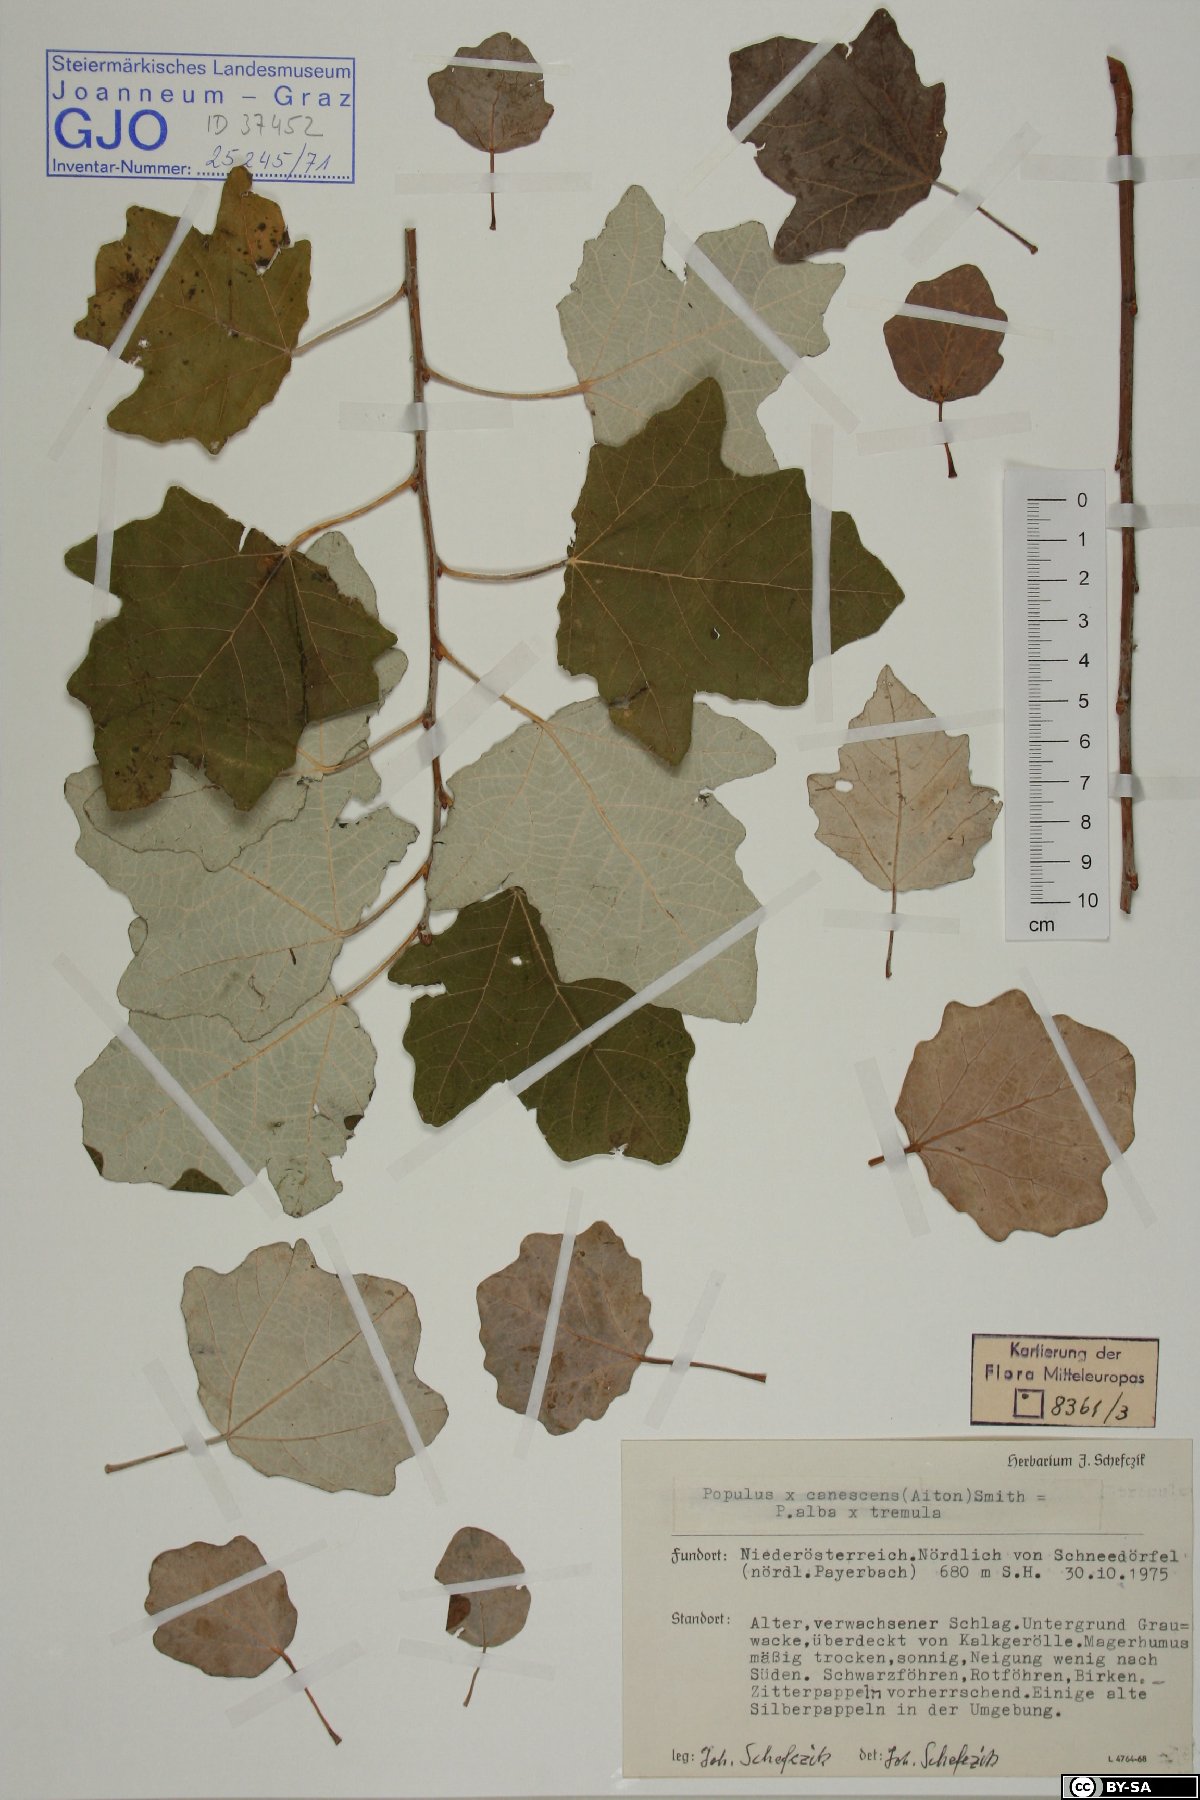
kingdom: Plantae
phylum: Tracheophyta
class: Magnoliopsida
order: Malpighiales
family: Salicaceae
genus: Populus
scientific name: Populus canescens
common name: Gray poplar
